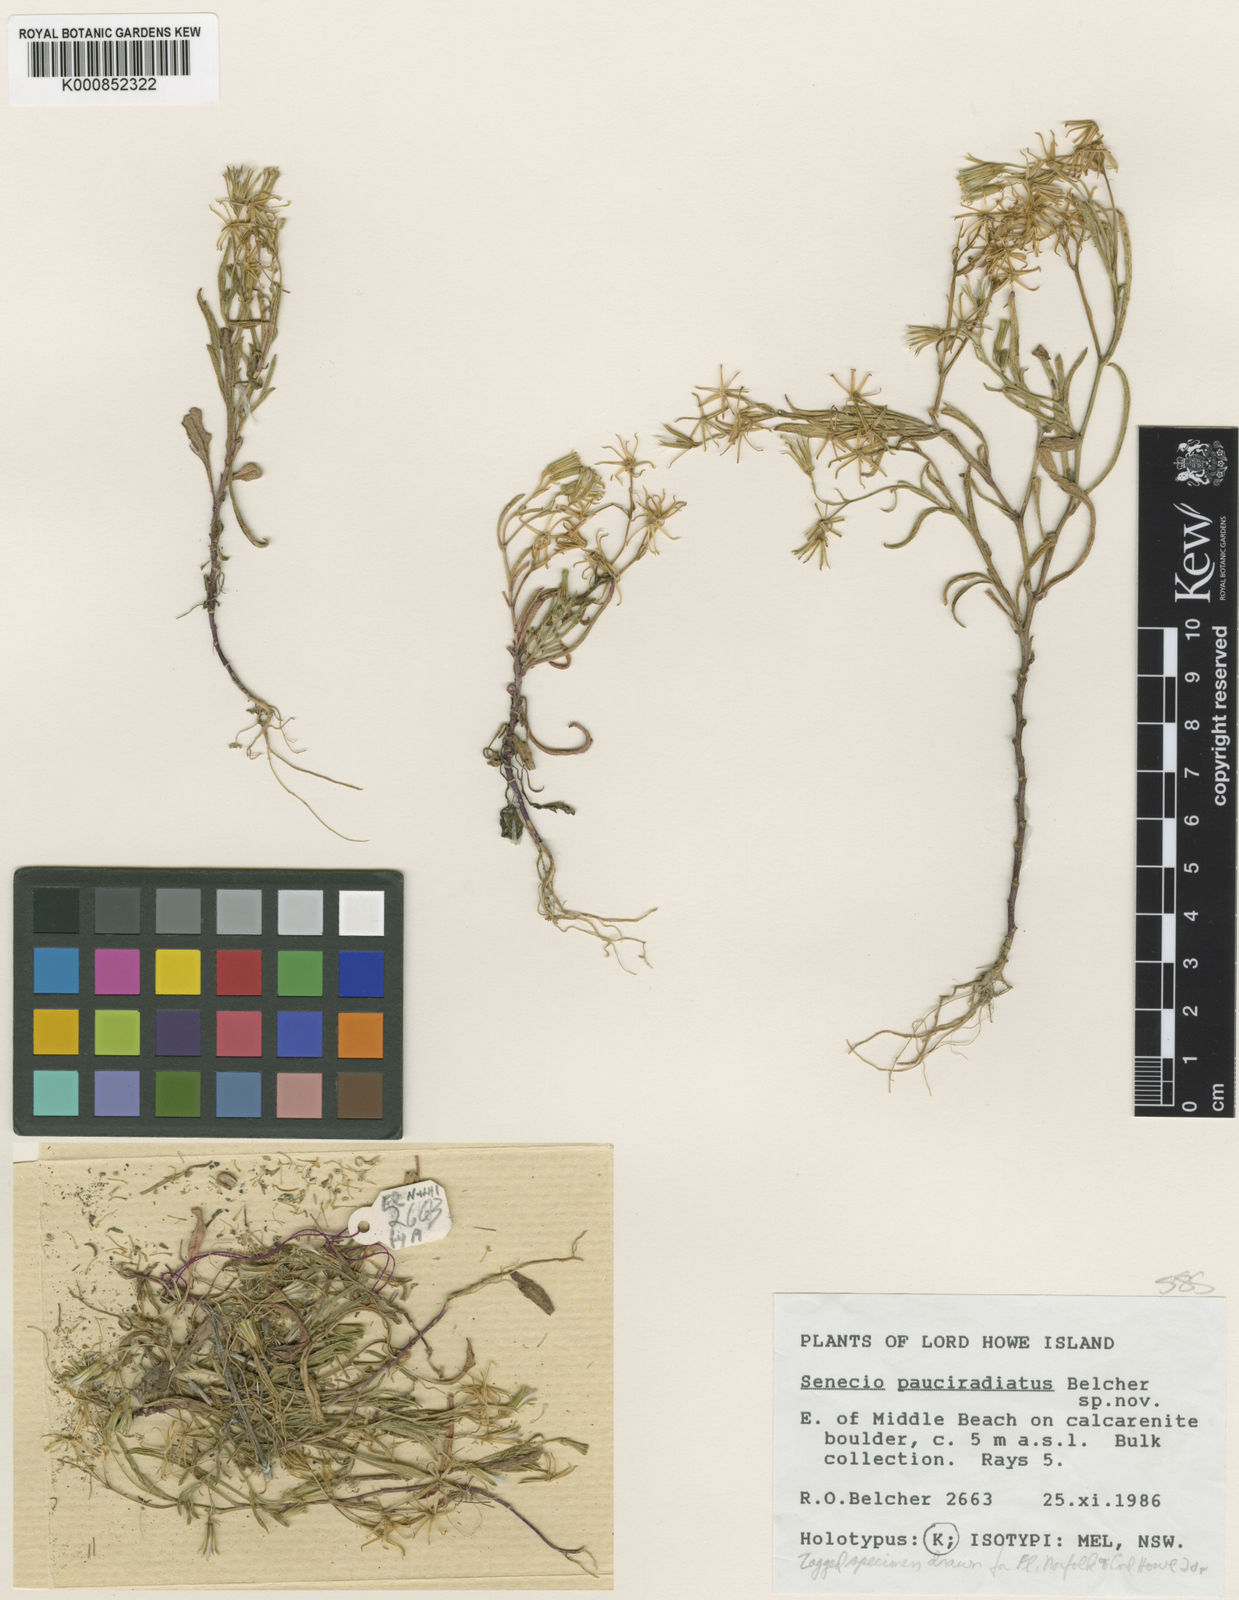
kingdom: Plantae
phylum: Tracheophyta
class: Magnoliopsida
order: Asterales
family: Asteraceae
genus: Senecio
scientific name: Senecio pauciradiatus
